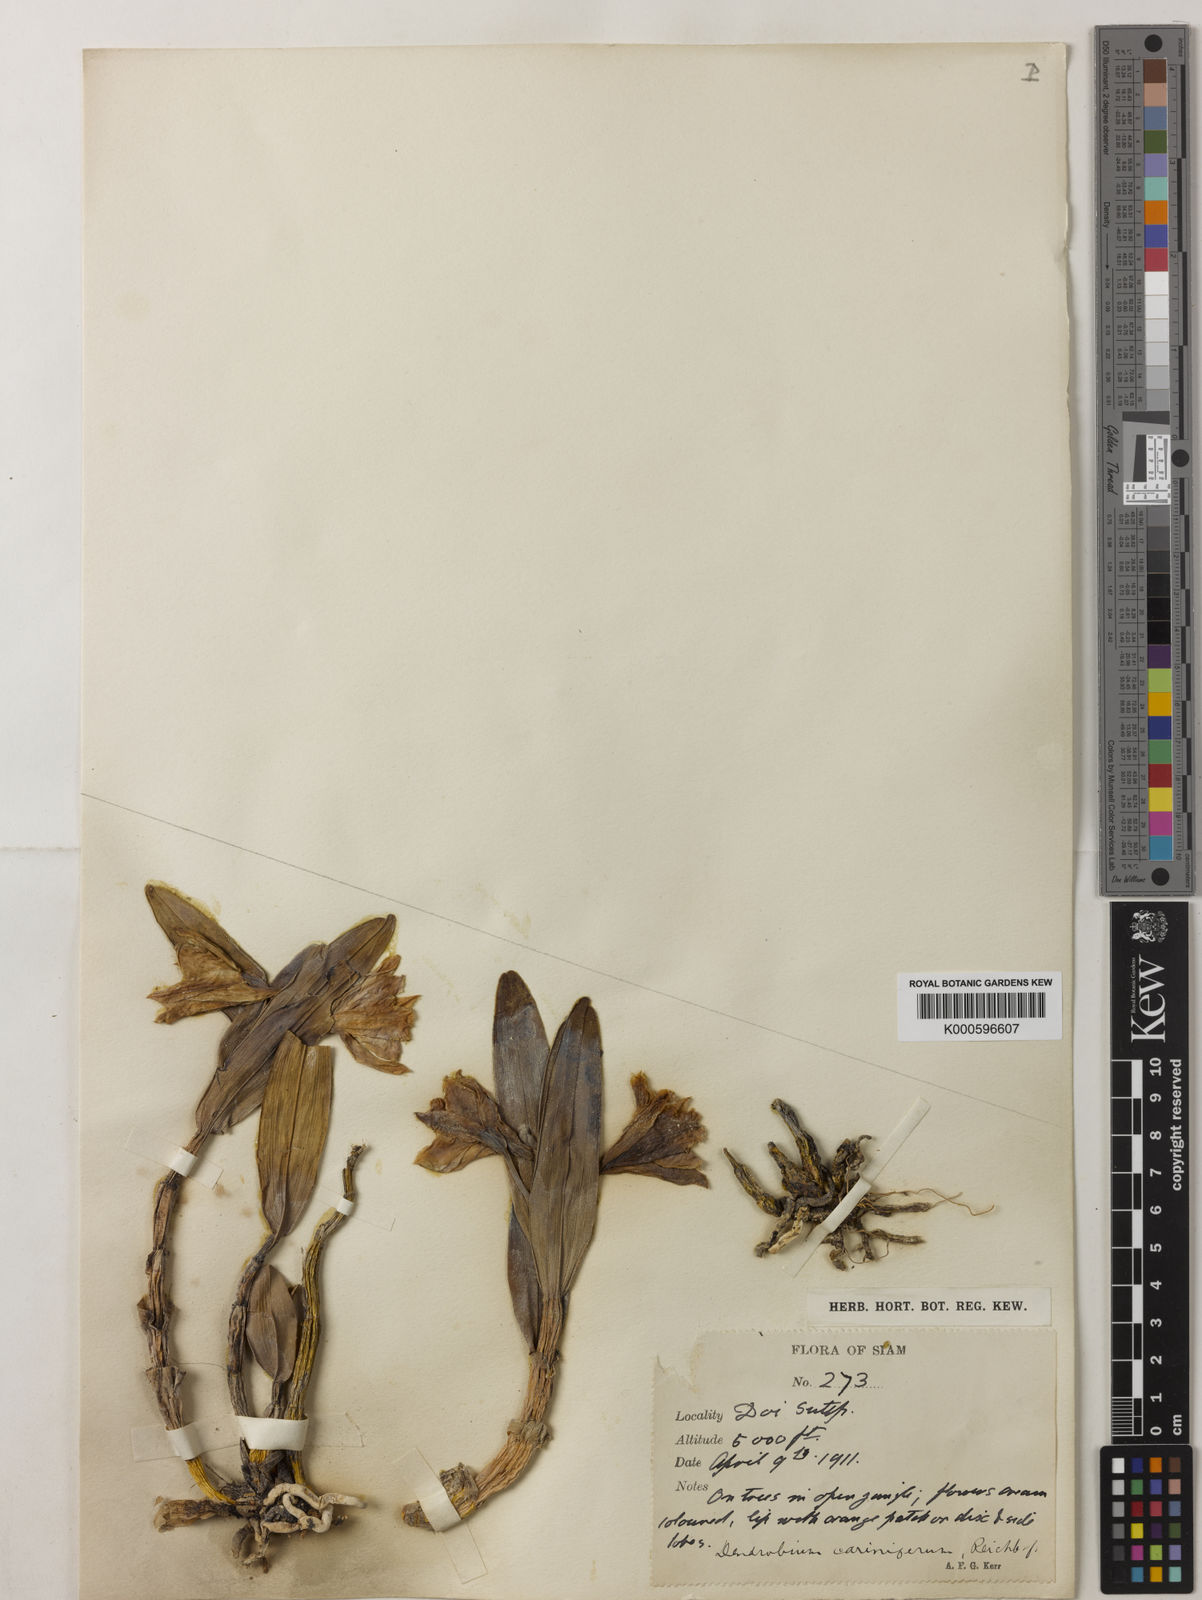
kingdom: Plantae
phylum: Tracheophyta
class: Liliopsida
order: Asparagales
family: Orchidaceae
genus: Dendrobium
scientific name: Dendrobium cariniferum
